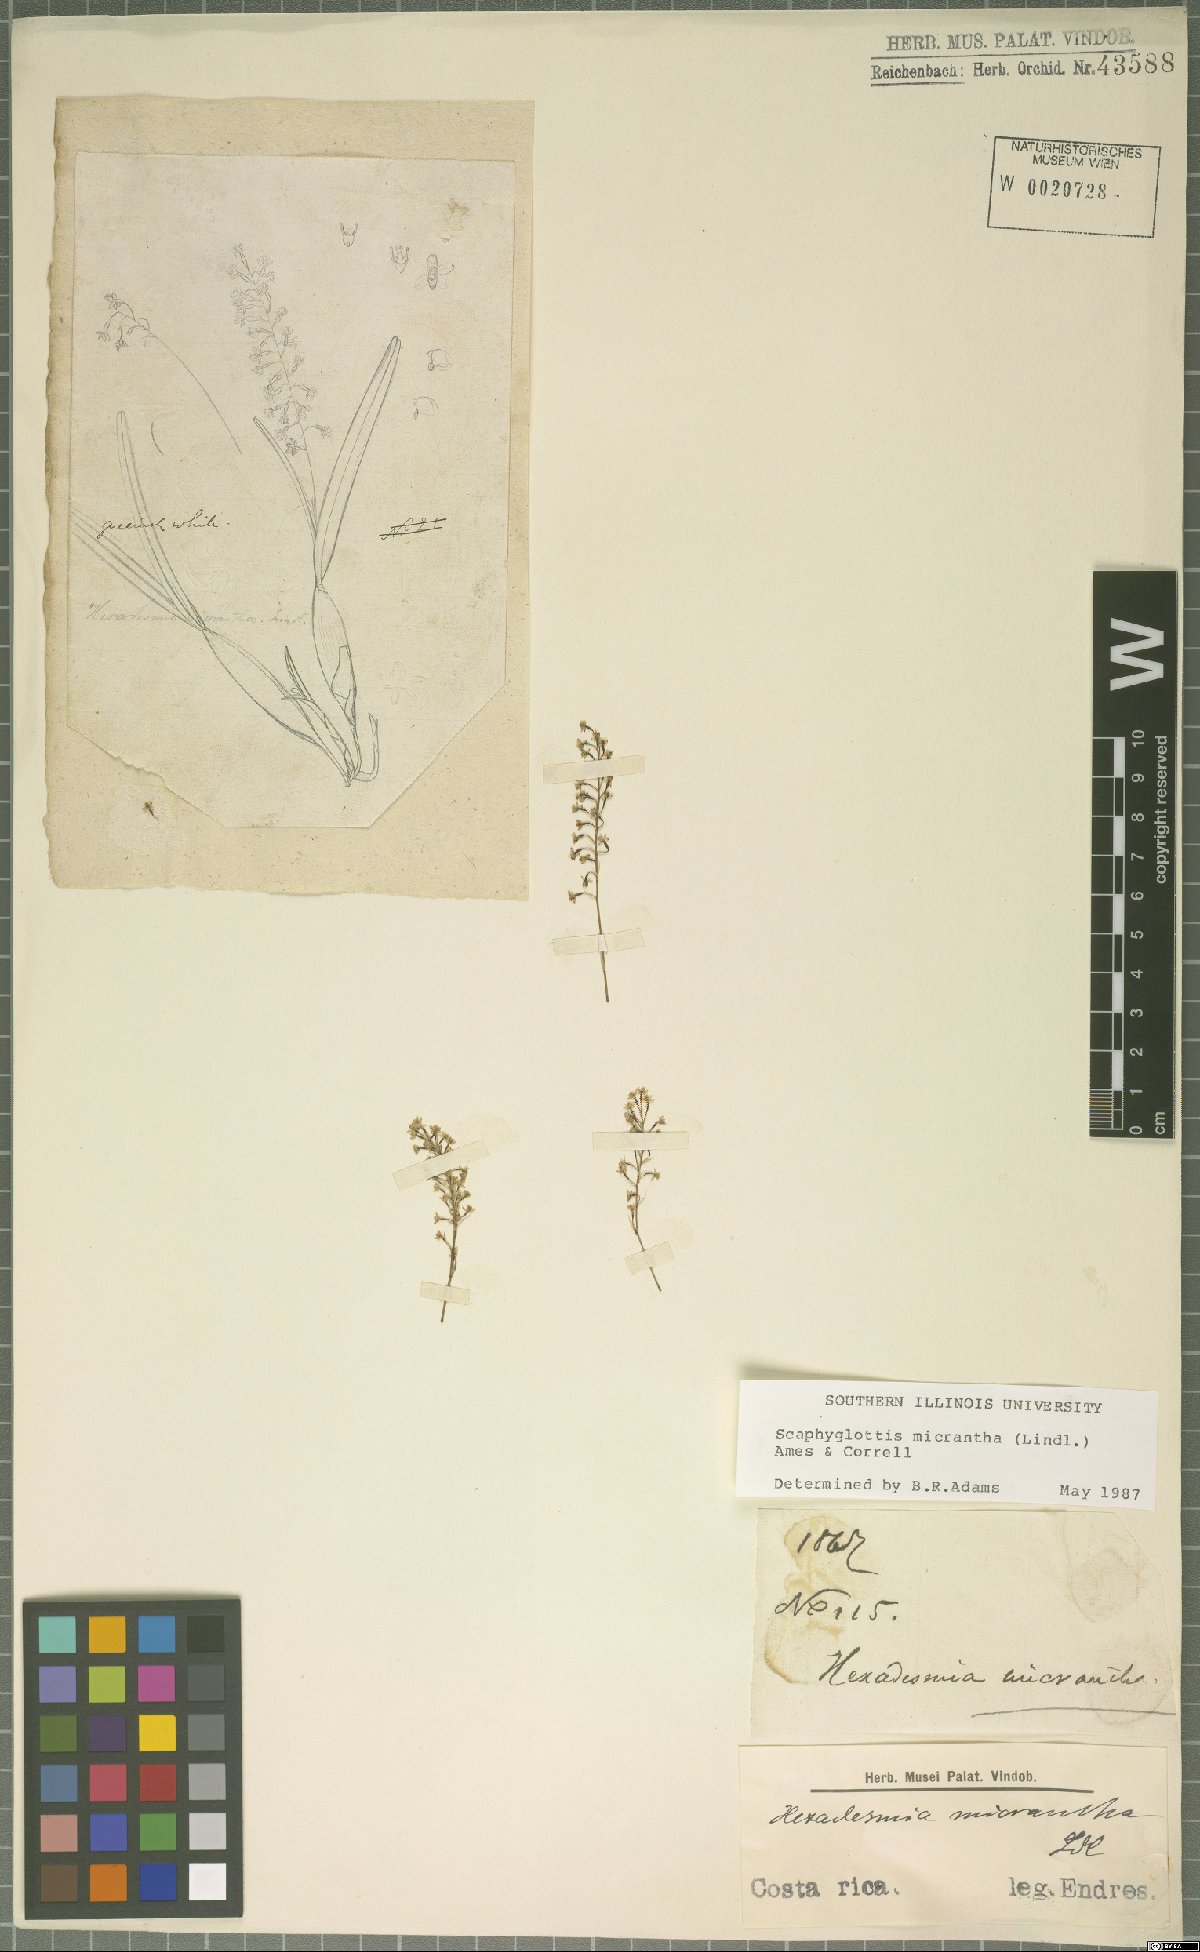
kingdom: Plantae
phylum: Tracheophyta
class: Liliopsida
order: Asparagales
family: Orchidaceae
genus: Scaphyglottis
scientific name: Scaphyglottis micrantha
